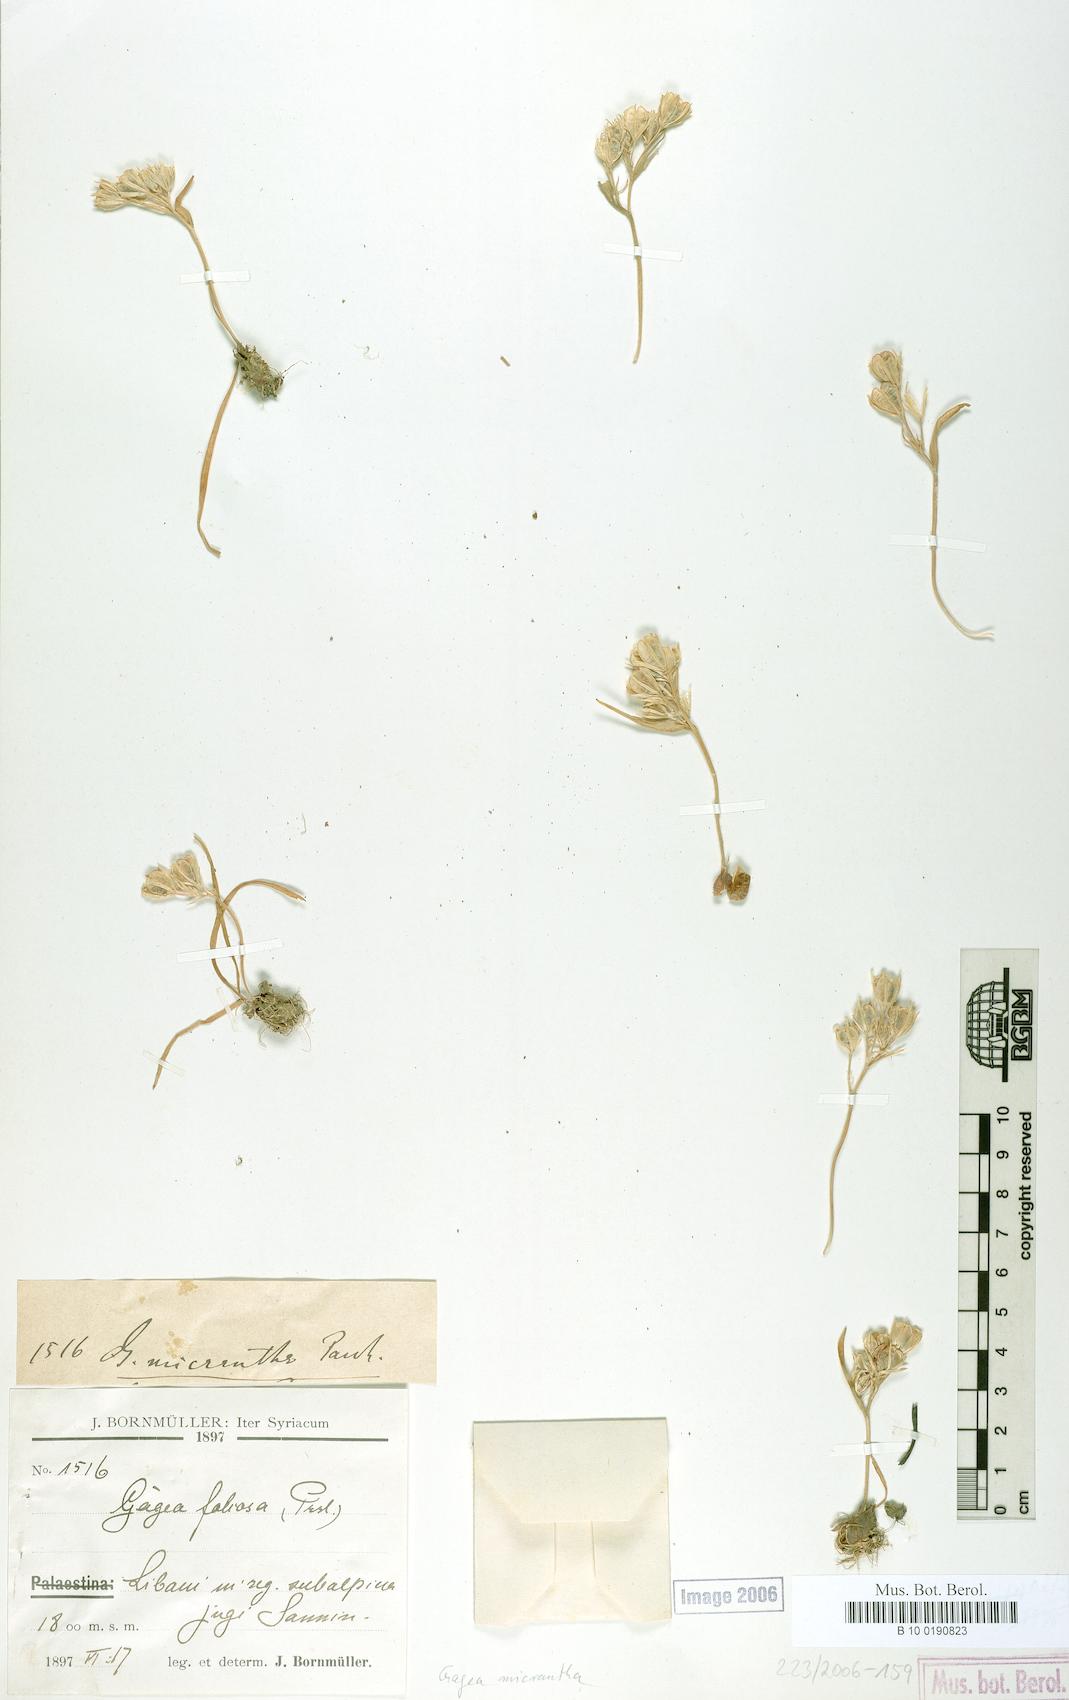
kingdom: Plantae
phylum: Tracheophyta
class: Liliopsida
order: Liliales
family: Liliaceae
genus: Gagea
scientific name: Gagea micrantha
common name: Small-flowered gagea
